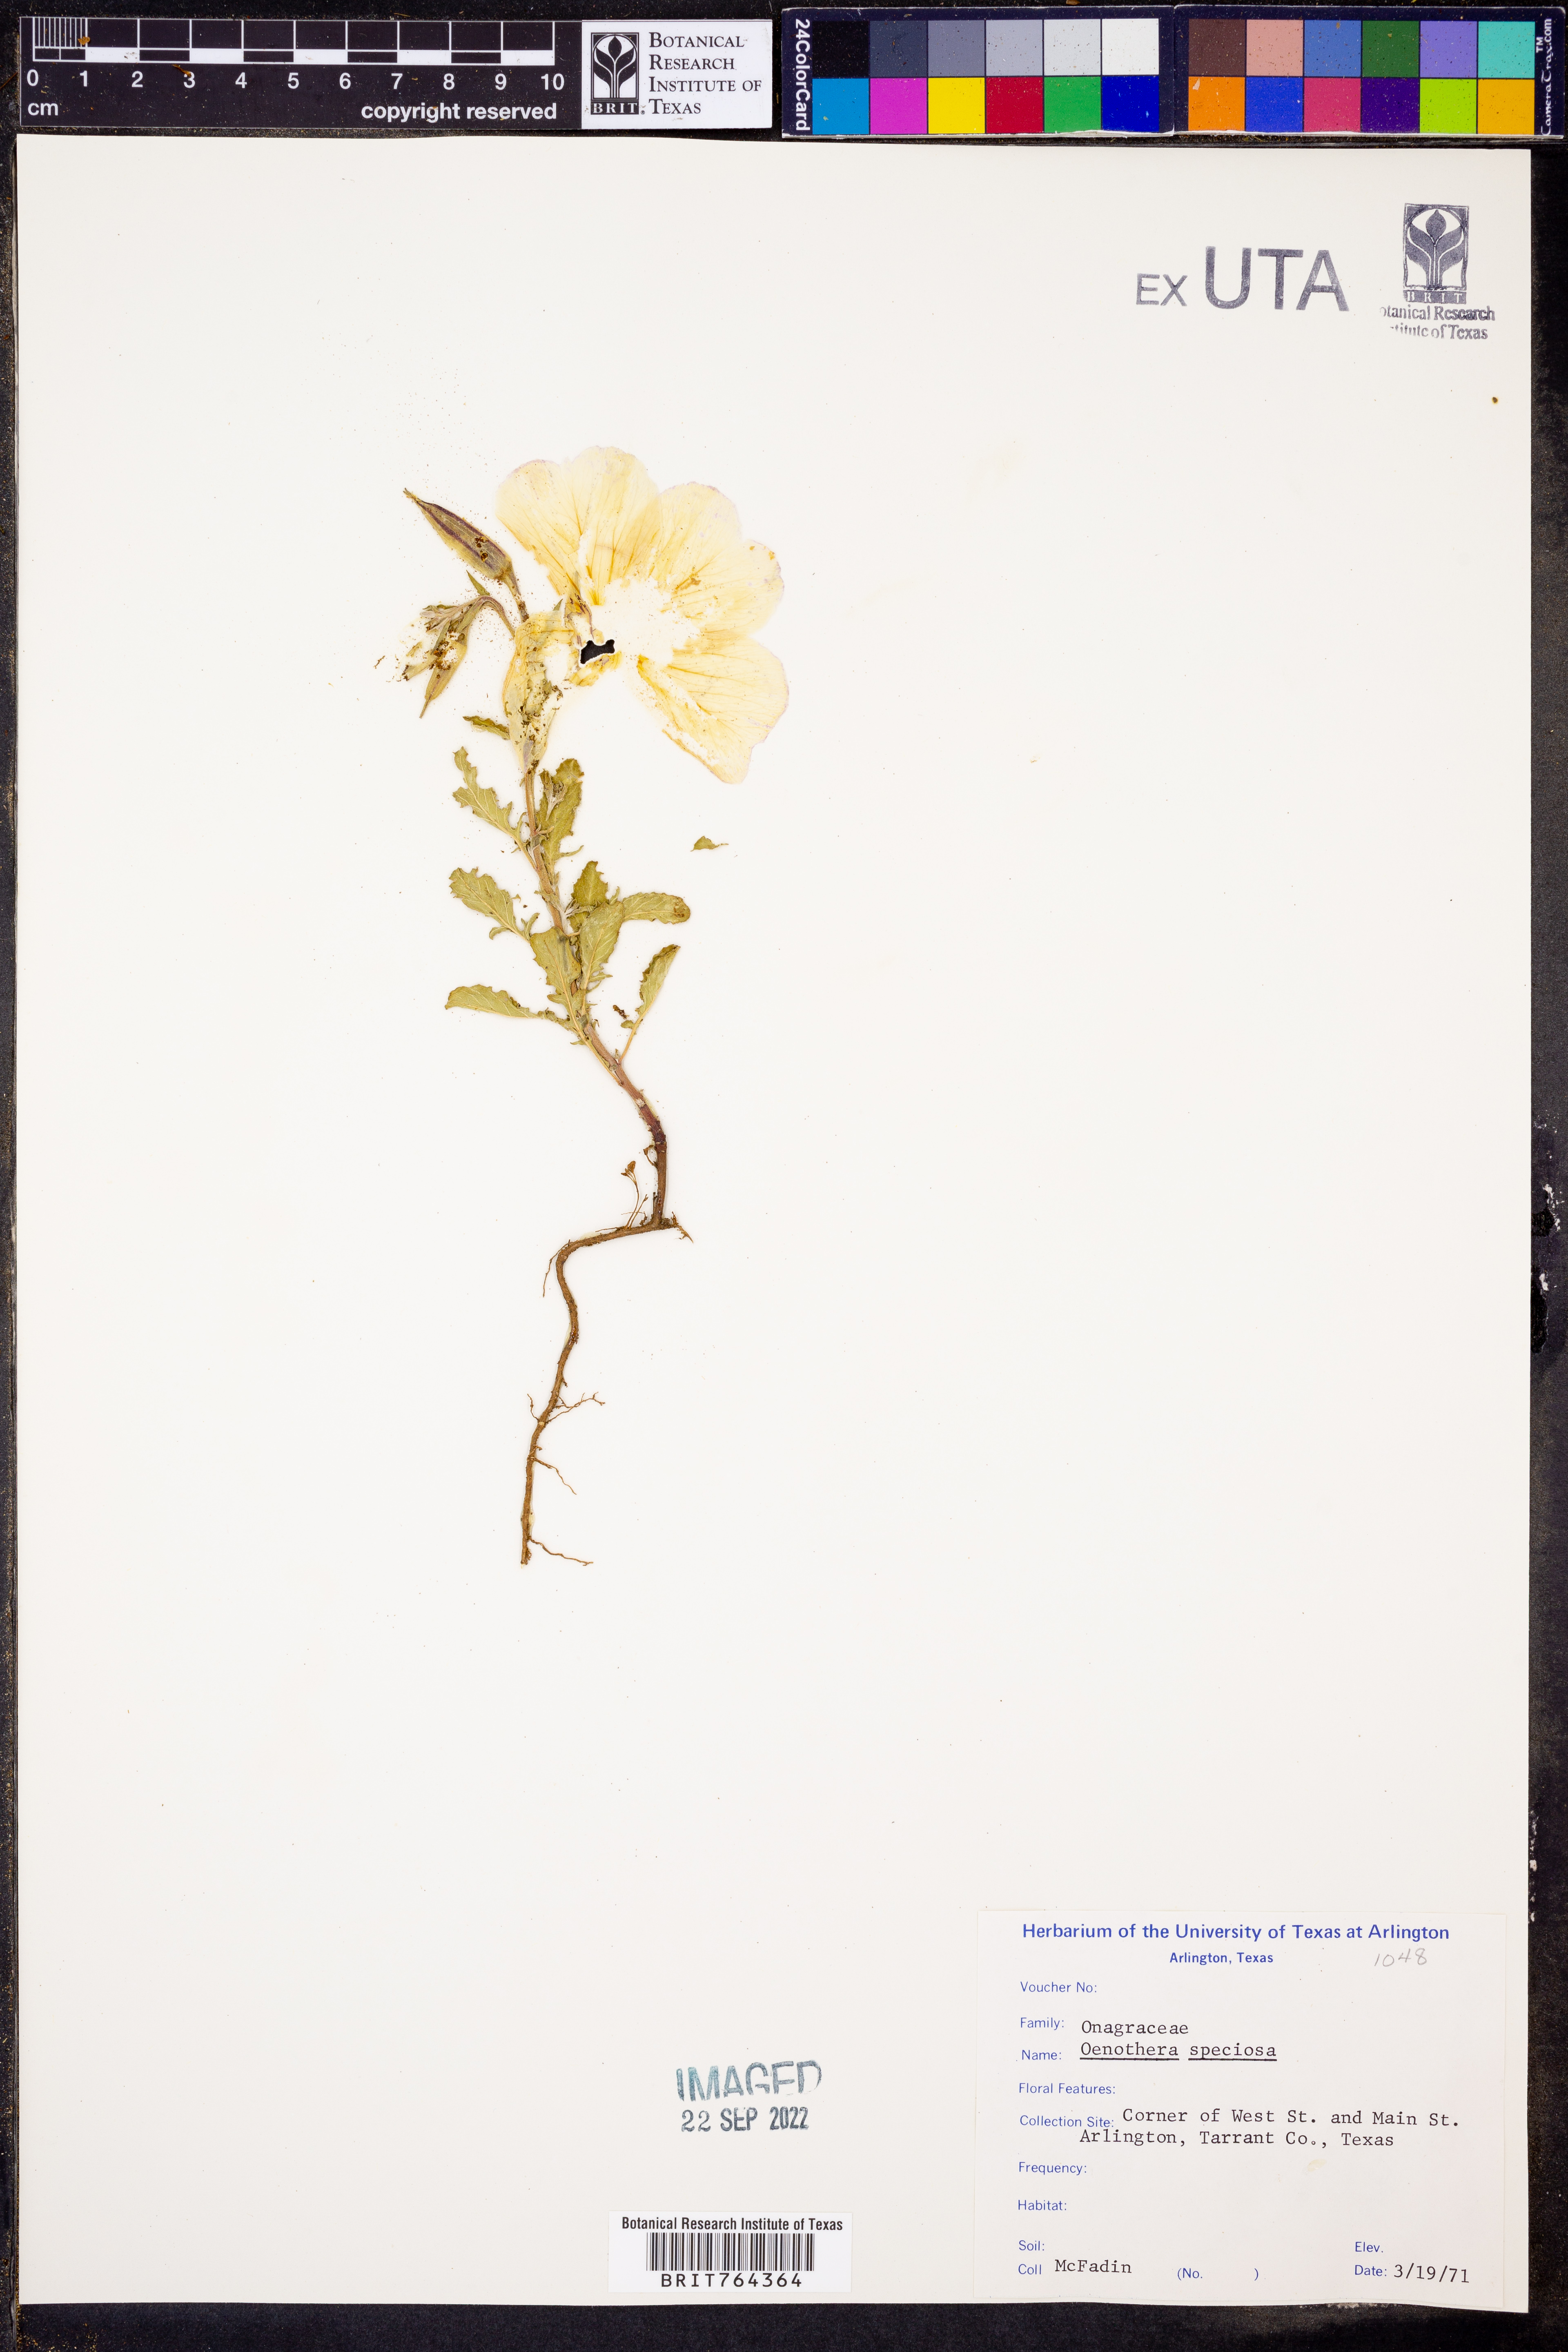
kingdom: Plantae
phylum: Tracheophyta
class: Magnoliopsida
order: Myrtales
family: Onagraceae
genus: Oenothera
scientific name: Oenothera speciosa
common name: White evening-primrose
